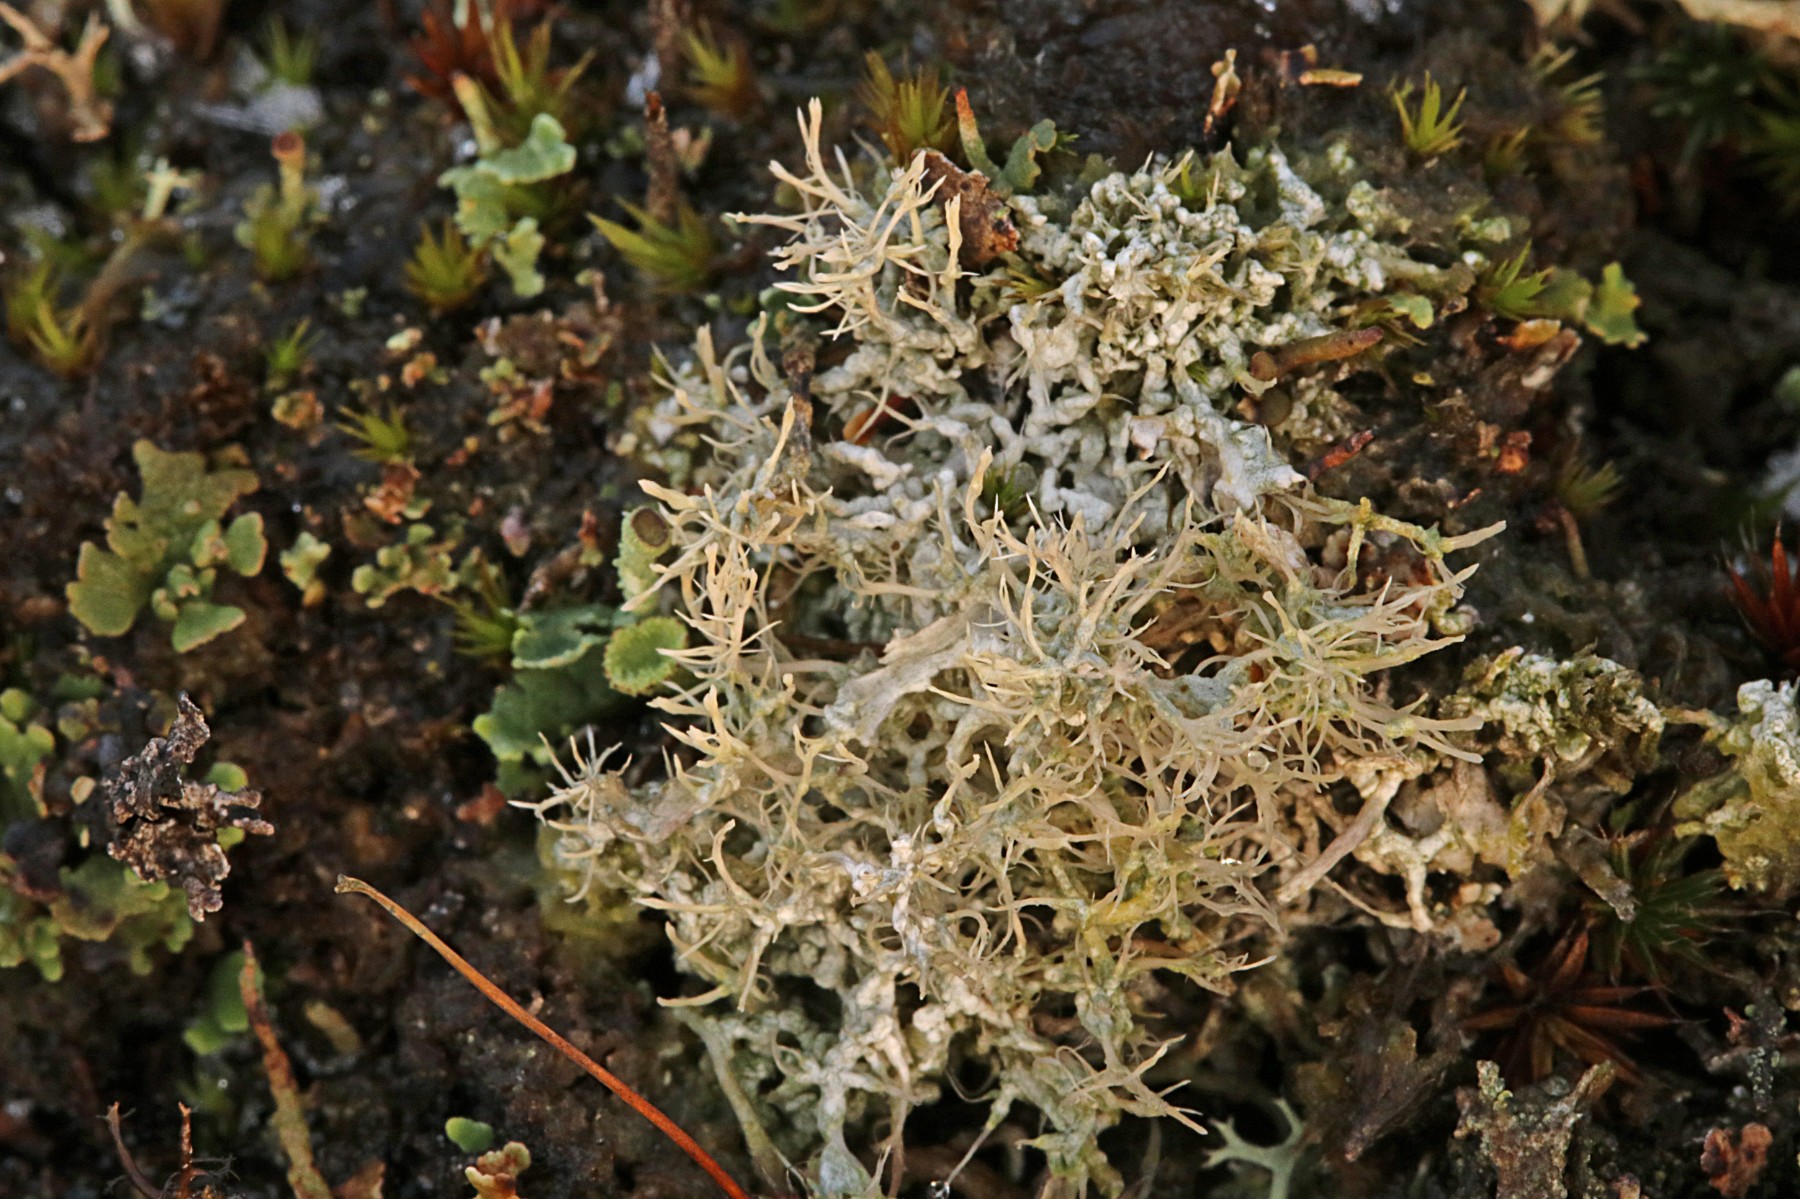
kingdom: Fungi
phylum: Ascomycota
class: Lecanoromycetes
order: Pertusariales
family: Ochrolechiaceae
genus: Ochrolechia
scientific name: Ochrolechia frigida
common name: fjeld-blegskivelav
